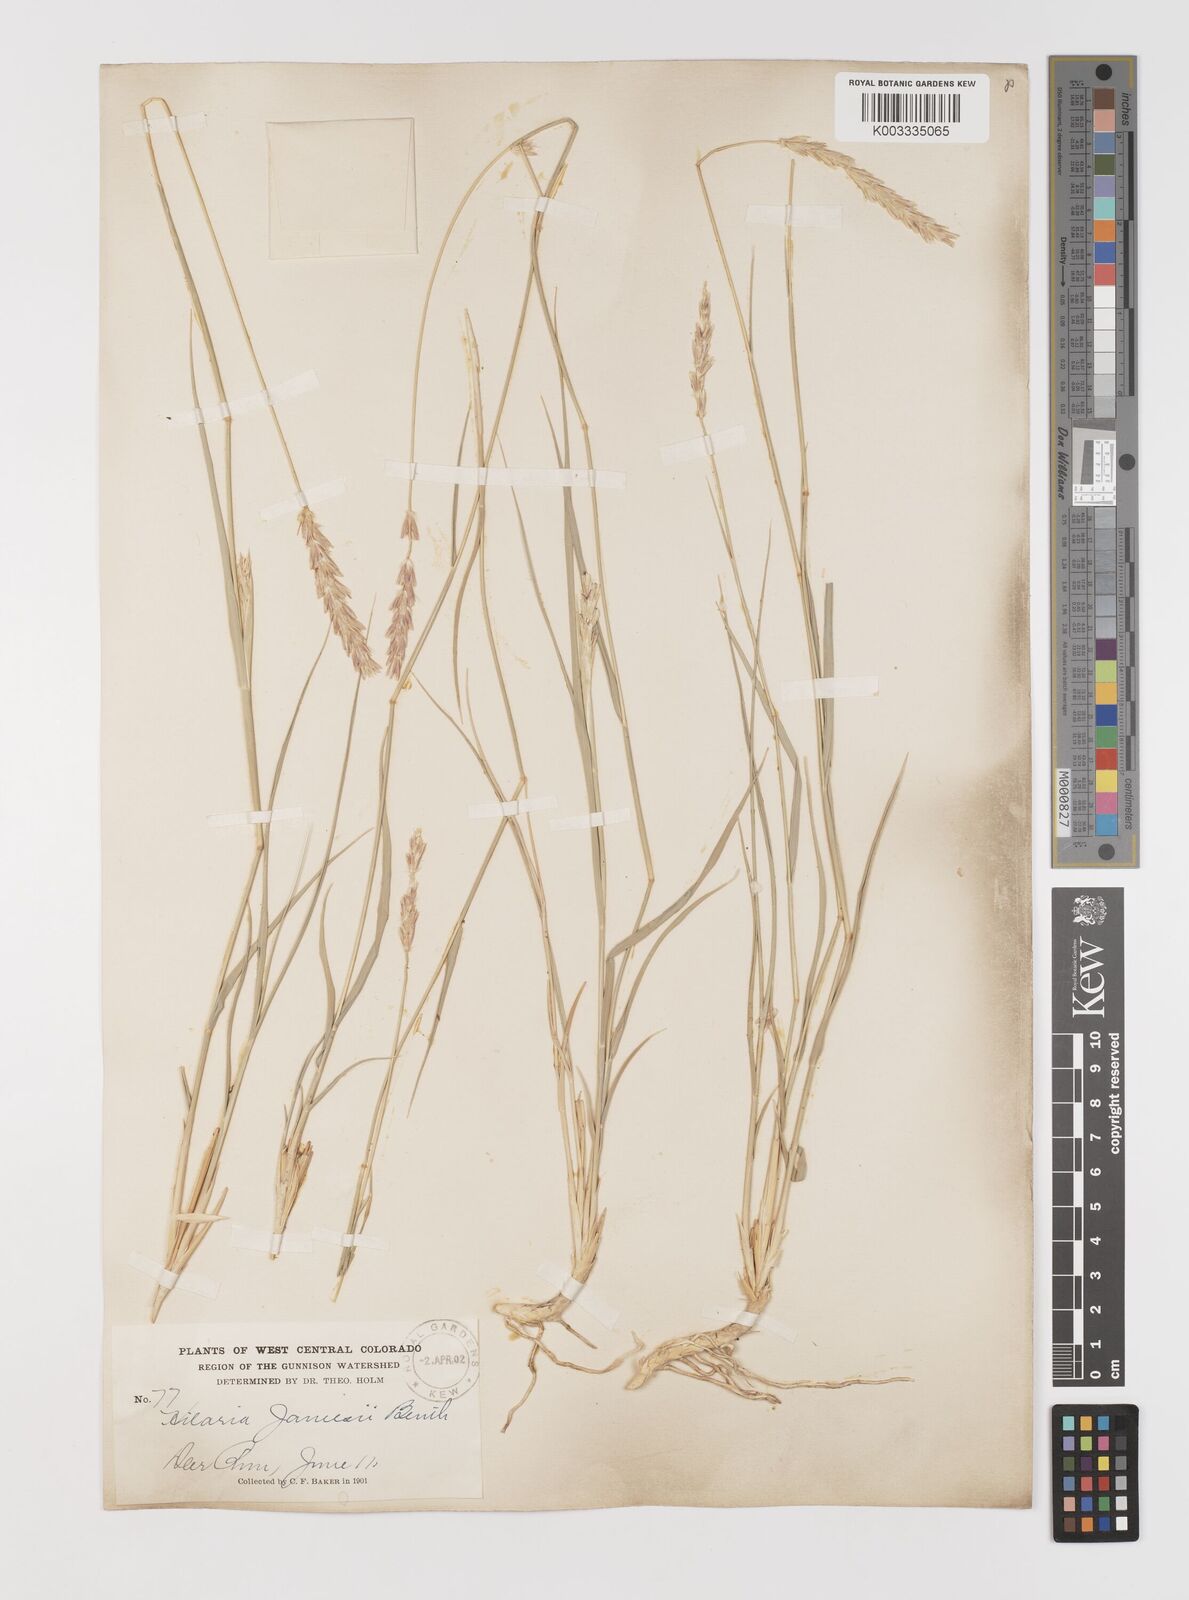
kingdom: Plantae
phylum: Tracheophyta
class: Liliopsida
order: Poales
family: Poaceae
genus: Hilaria
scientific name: Hilaria jamesii
